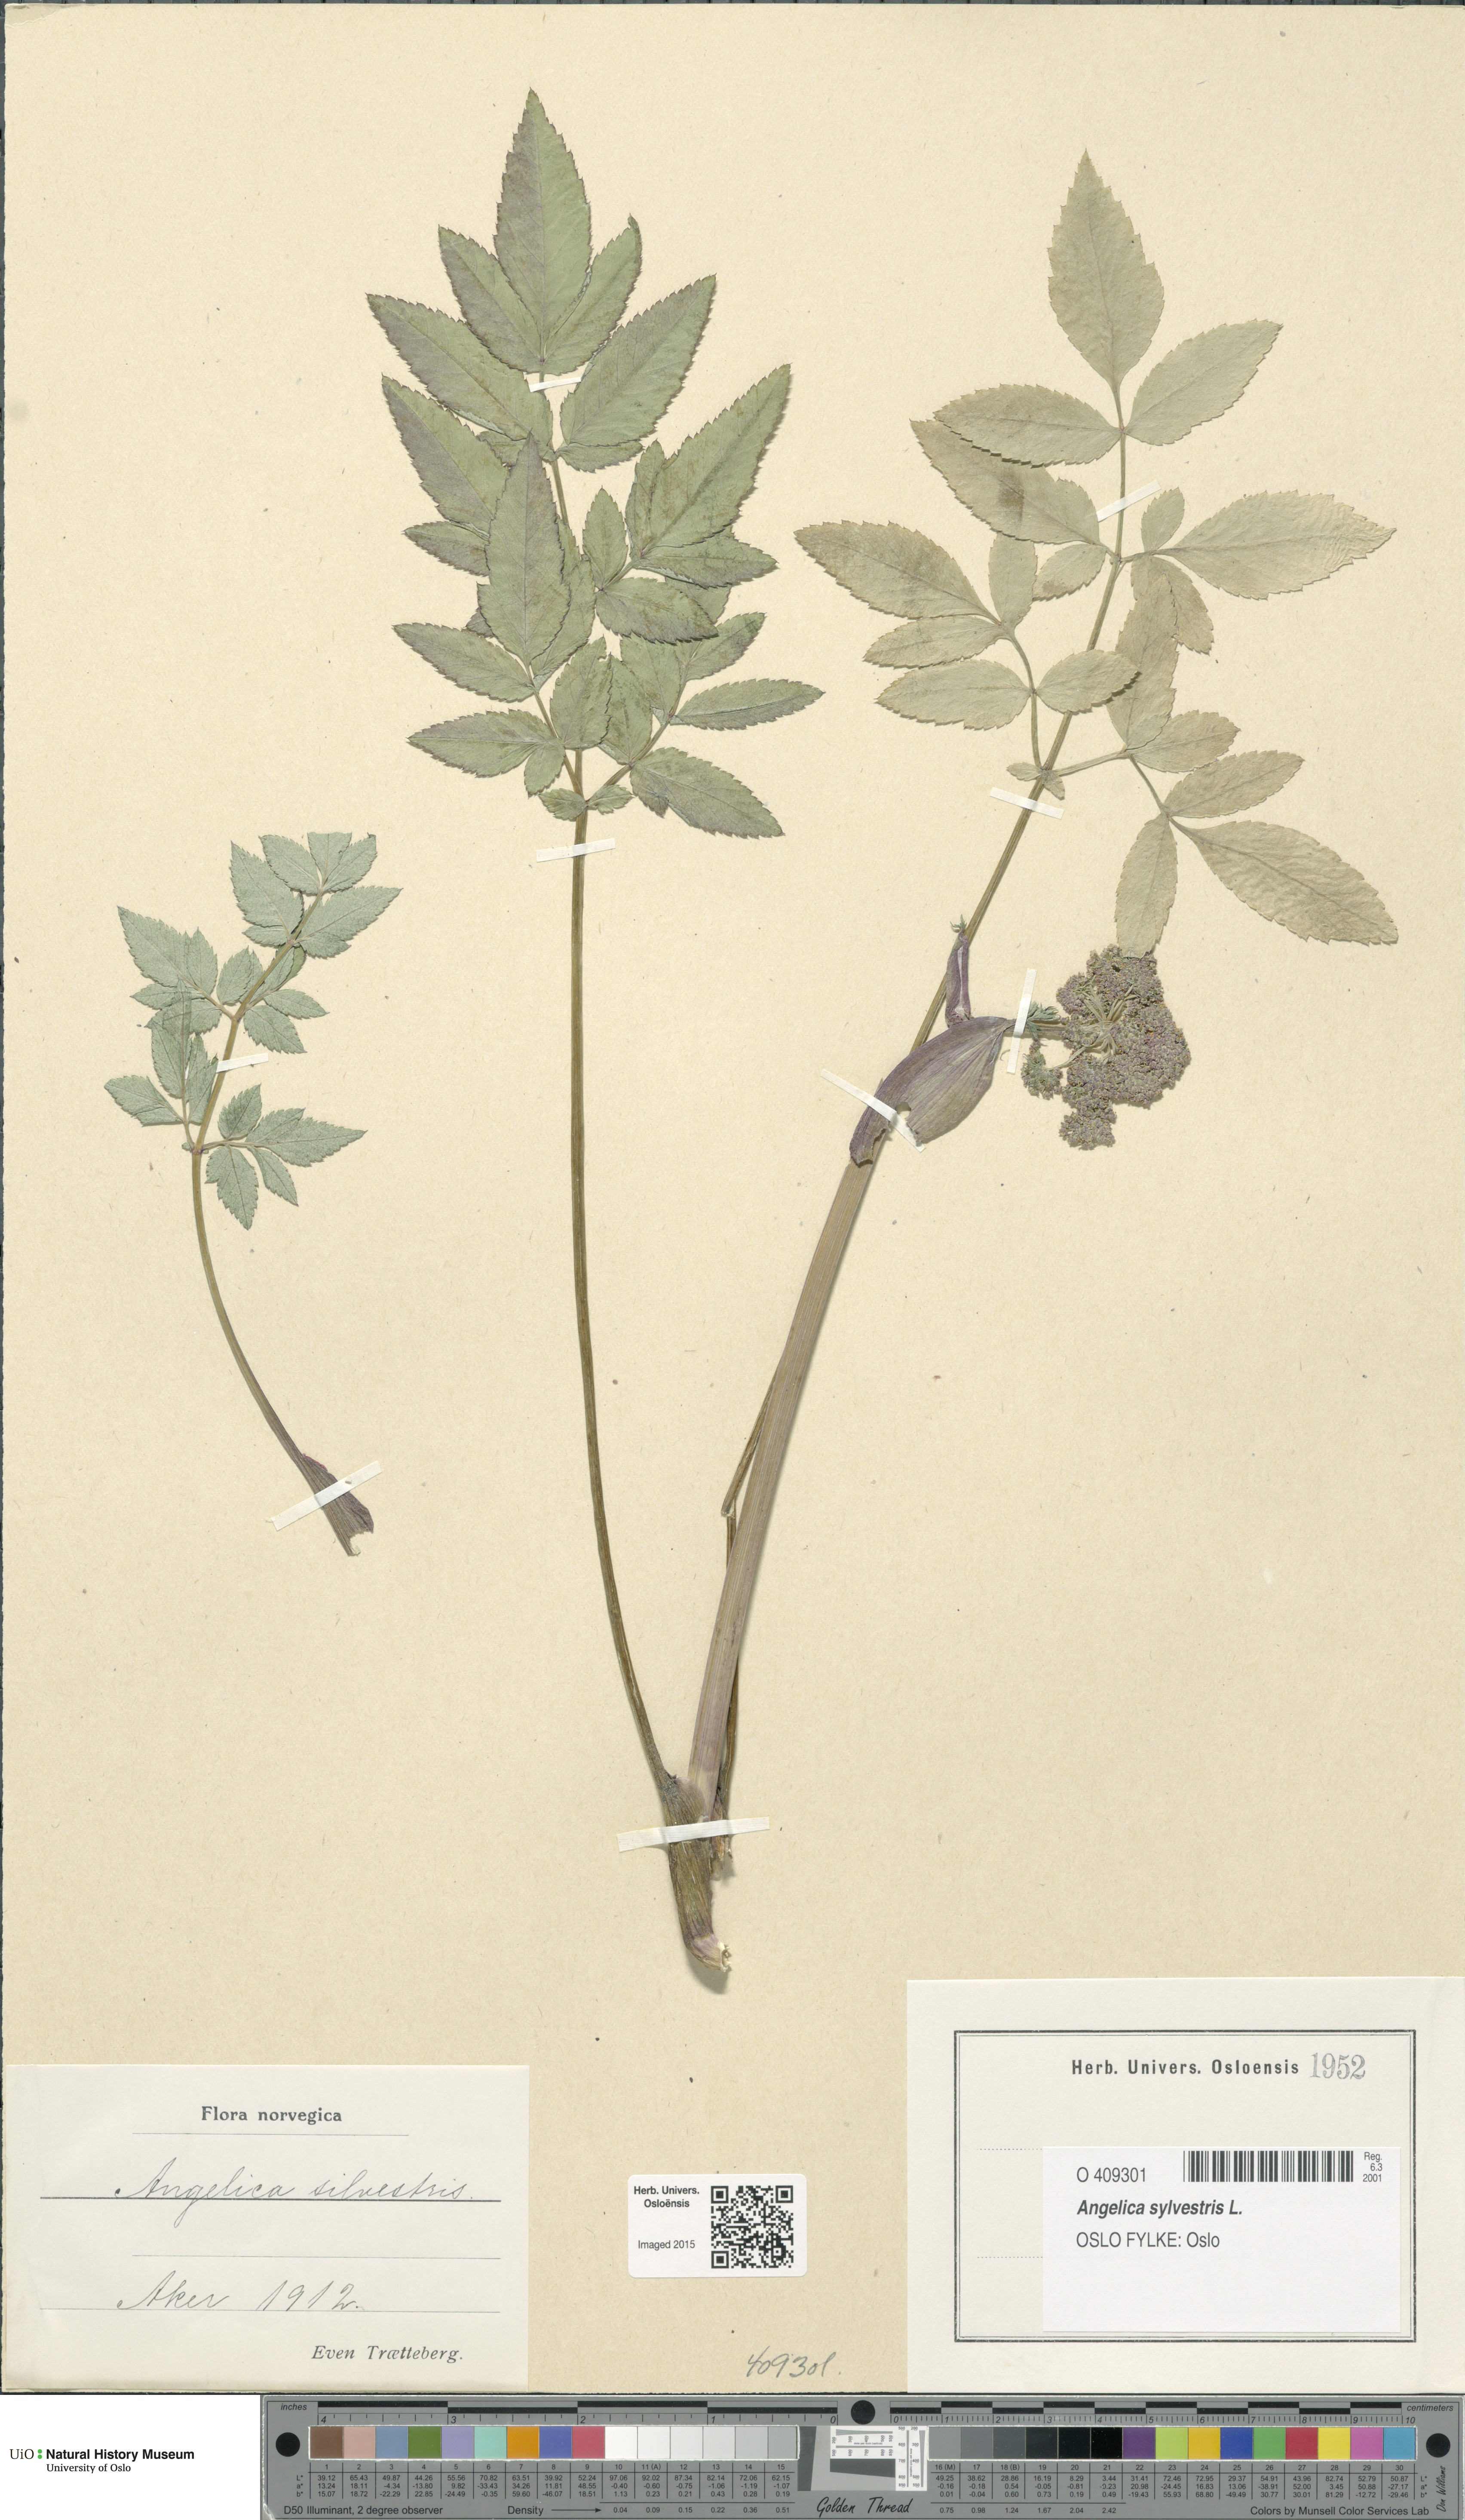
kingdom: Plantae
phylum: Tracheophyta
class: Magnoliopsida
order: Apiales
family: Apiaceae
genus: Angelica
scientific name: Angelica sylvestris
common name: Wild angelica
